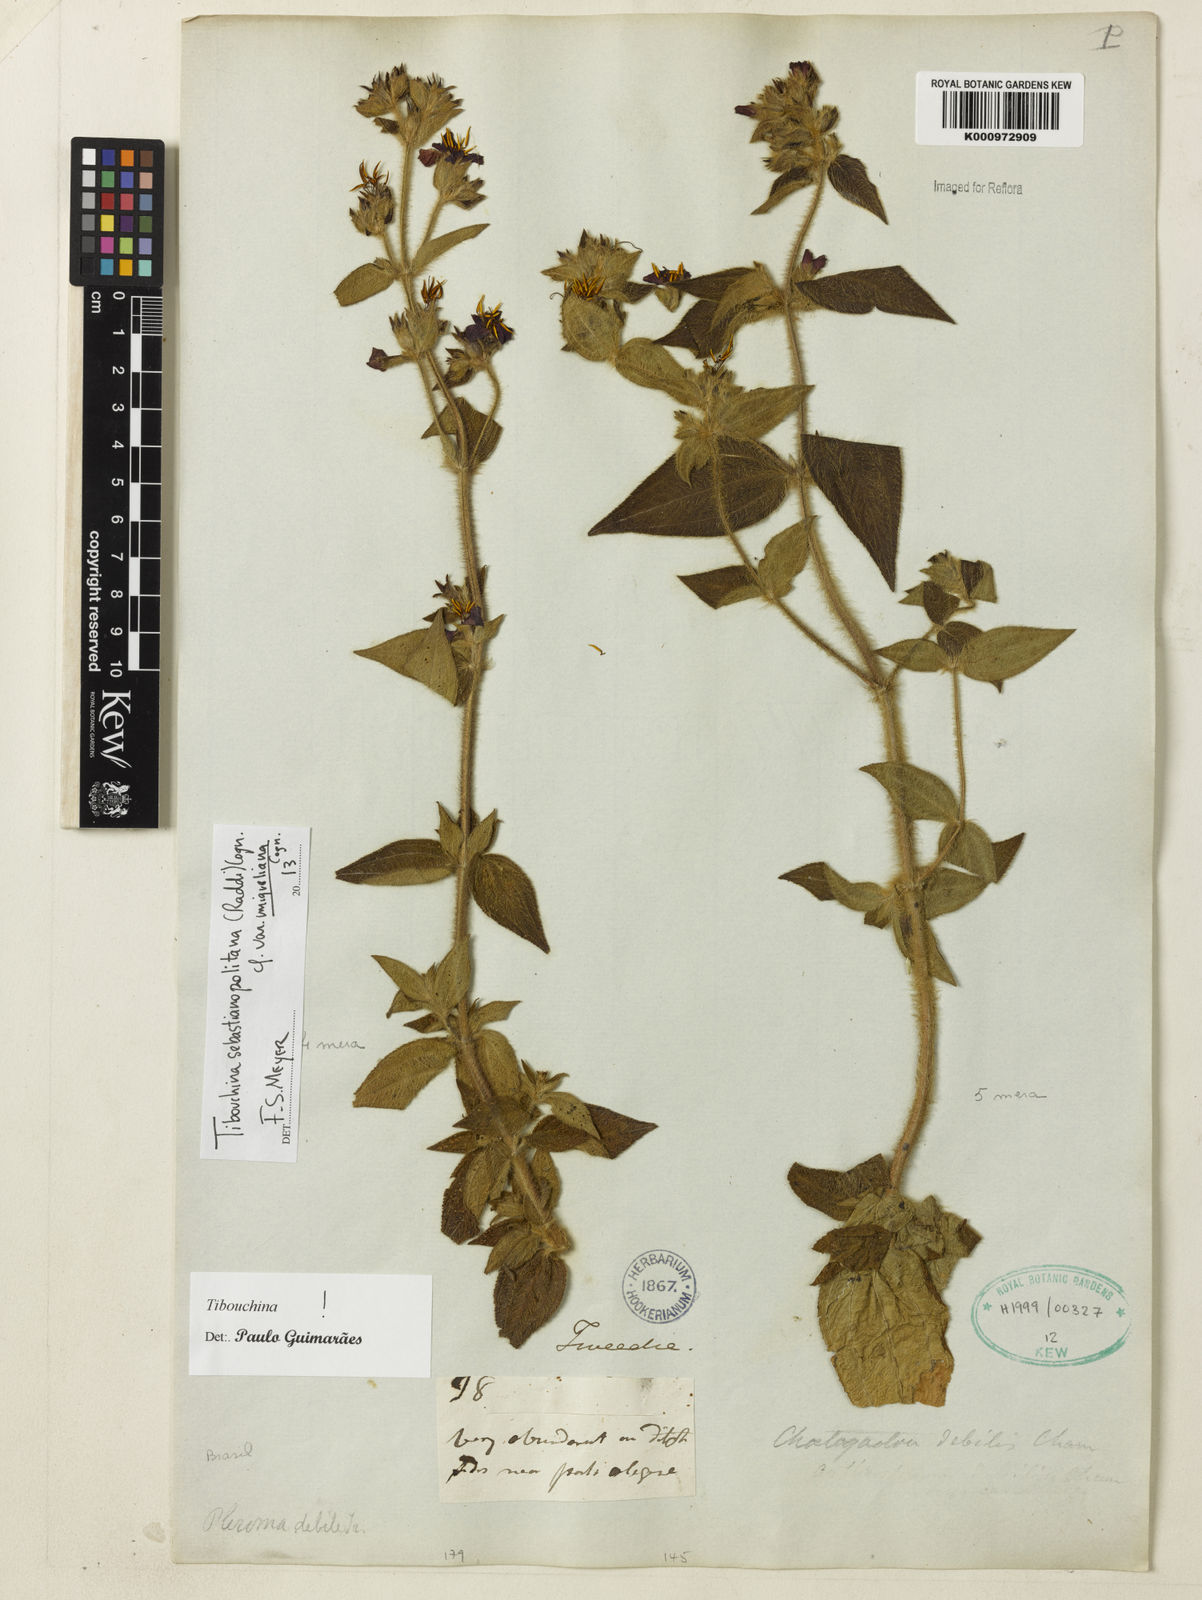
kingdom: Plantae
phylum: Tracheophyta
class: Magnoliopsida
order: Myrtales
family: Melastomataceae
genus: Chaetogastra
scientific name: Chaetogastra sebastianopolitana
